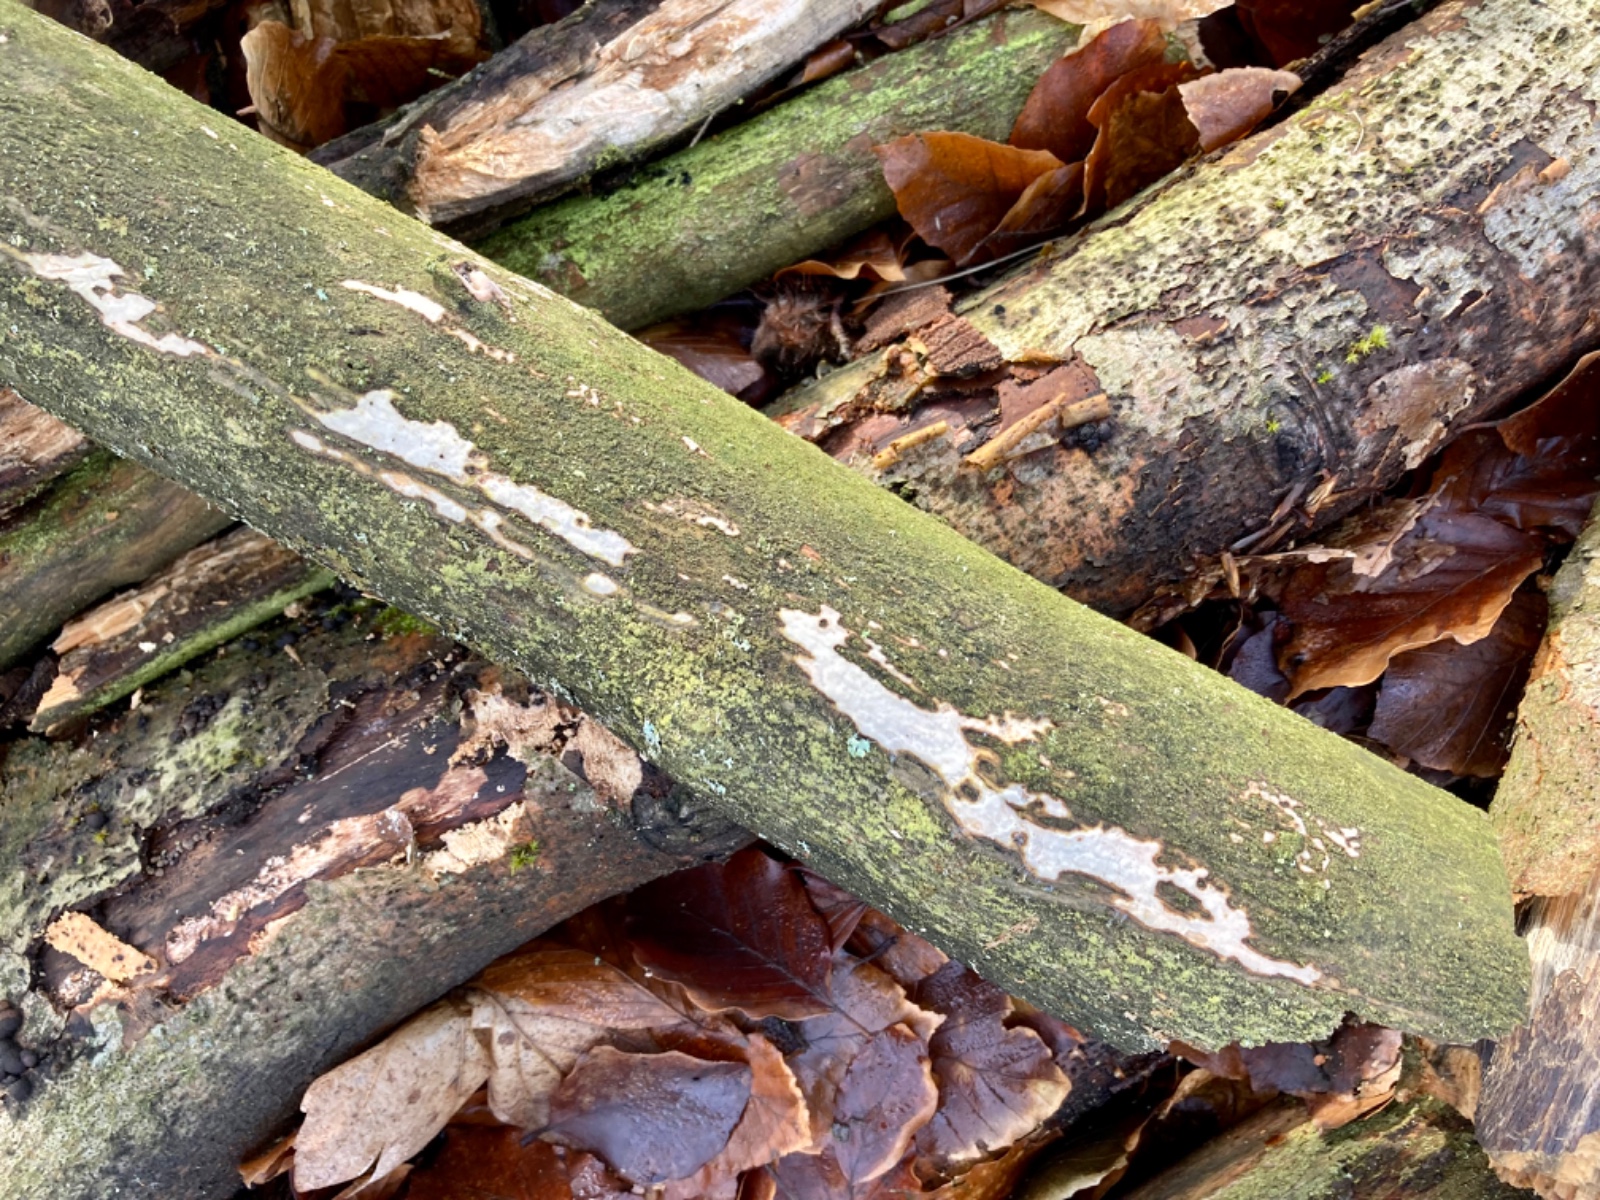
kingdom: Fungi
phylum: Basidiomycota
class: Agaricomycetes
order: Corticiales
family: Vuilleminiaceae
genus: Vuilleminia
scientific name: Vuilleminia comedens
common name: almindelig barksprænger
